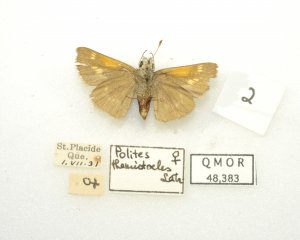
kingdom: Animalia
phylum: Arthropoda
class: Insecta
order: Lepidoptera
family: Hesperiidae
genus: Polites
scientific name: Polites themistocles
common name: Tawny-edged Skipper
